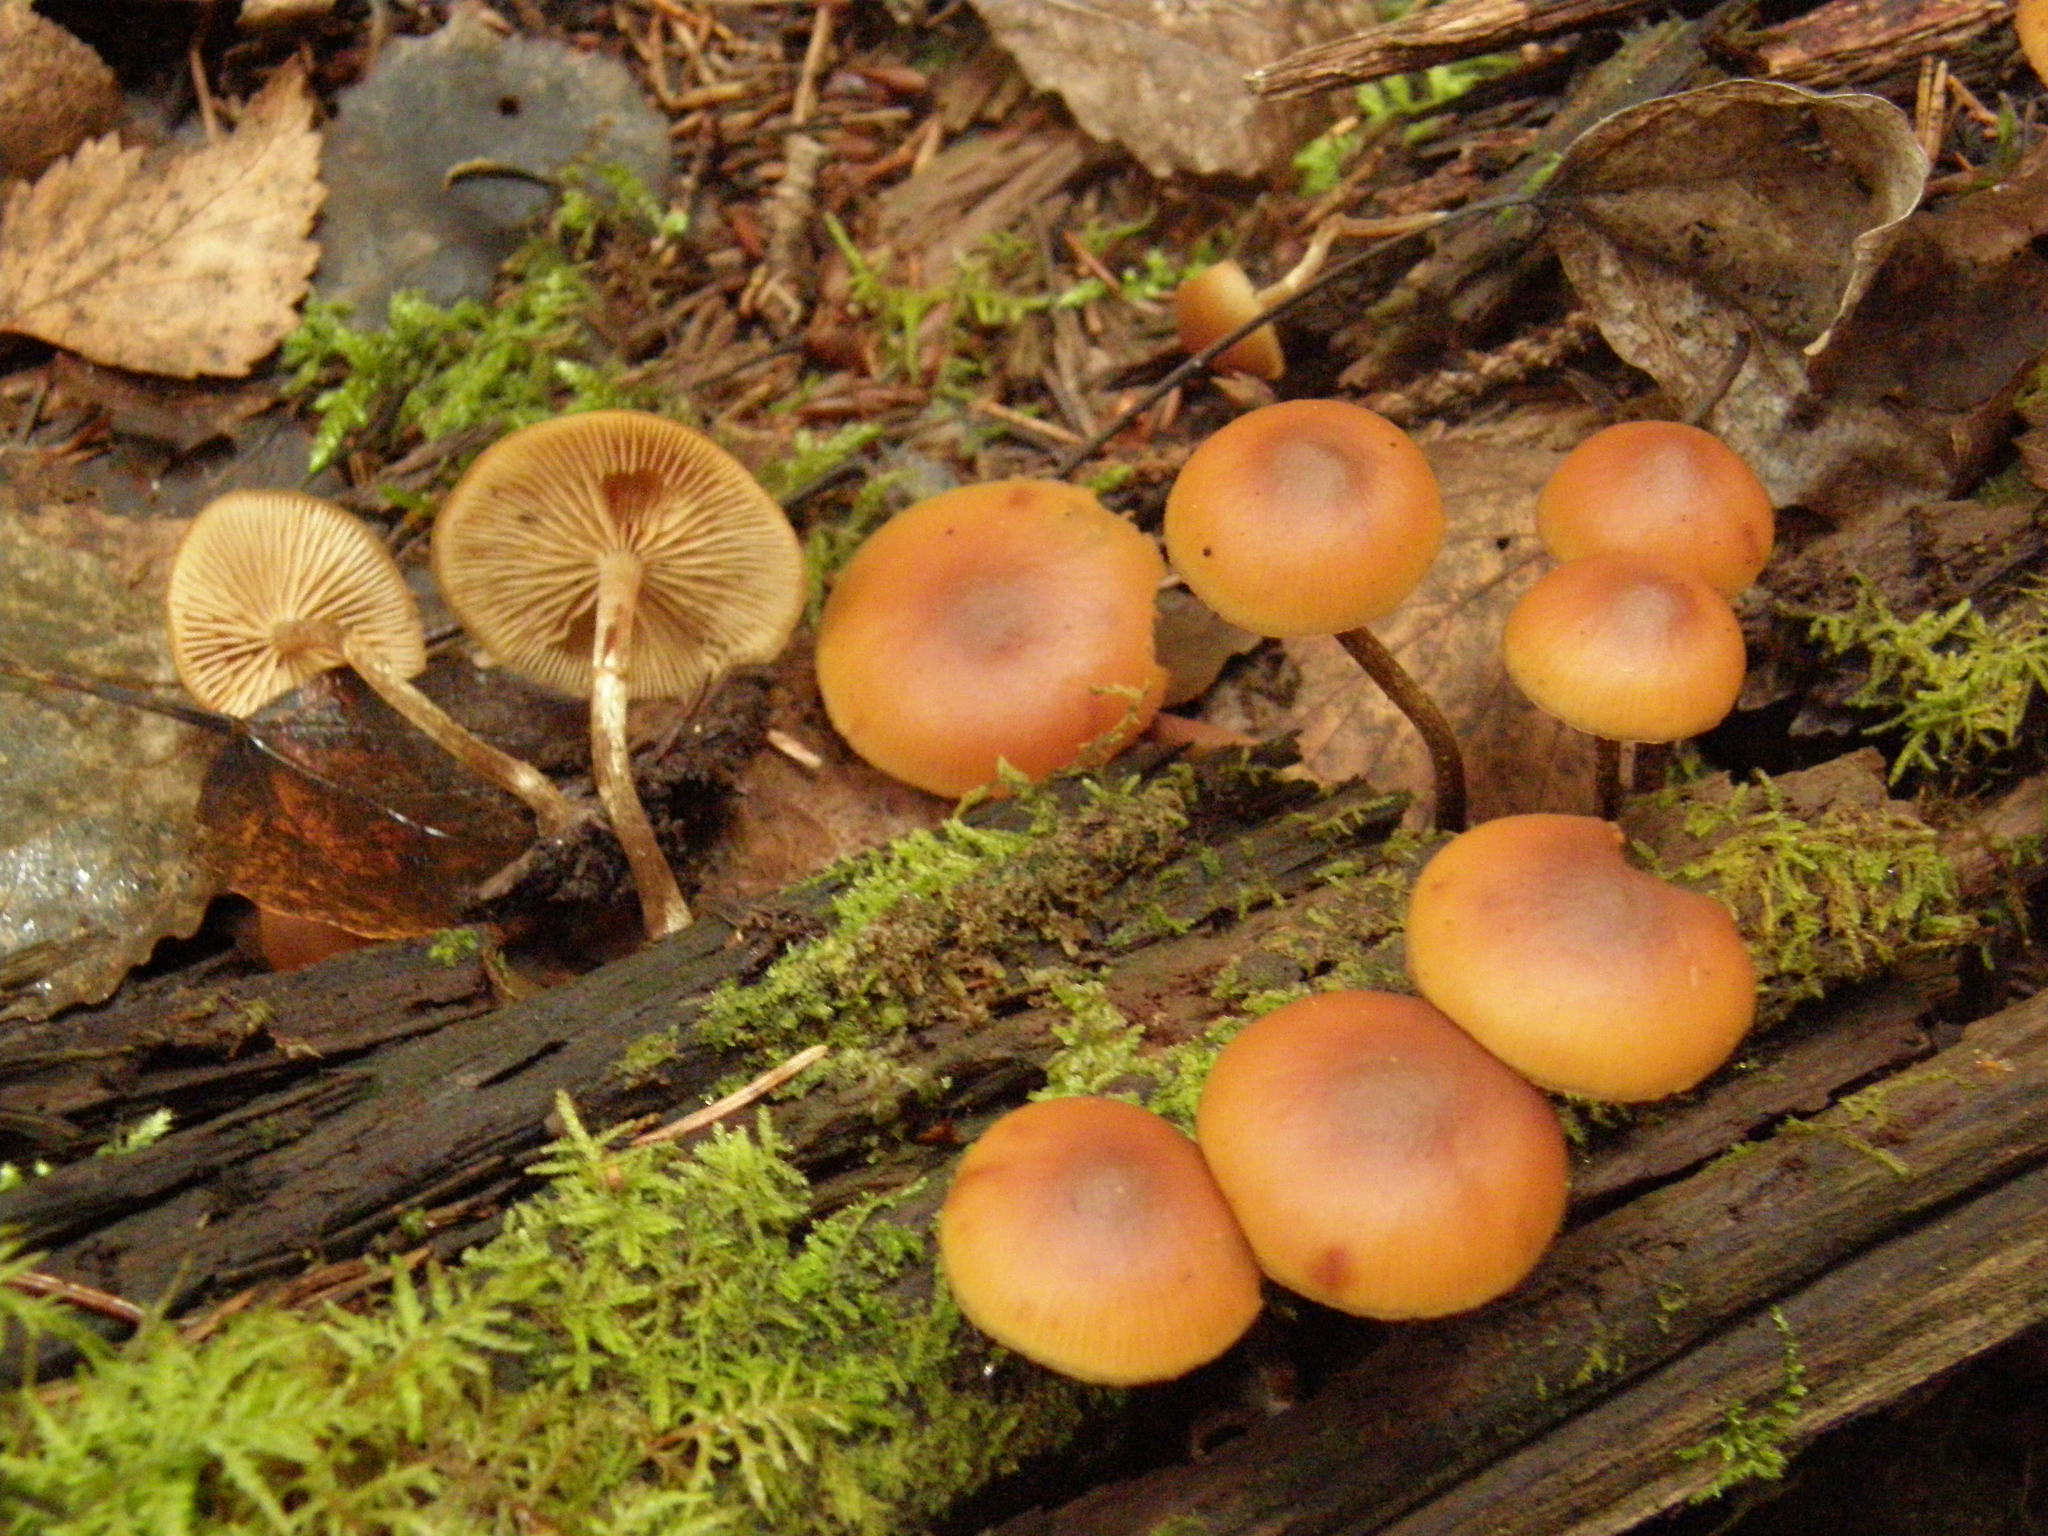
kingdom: Fungi
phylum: Basidiomycota
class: Agaricomycetes
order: Agaricales
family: Hymenogastraceae
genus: Galerina
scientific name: Galerina marginata
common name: Funeral bell
